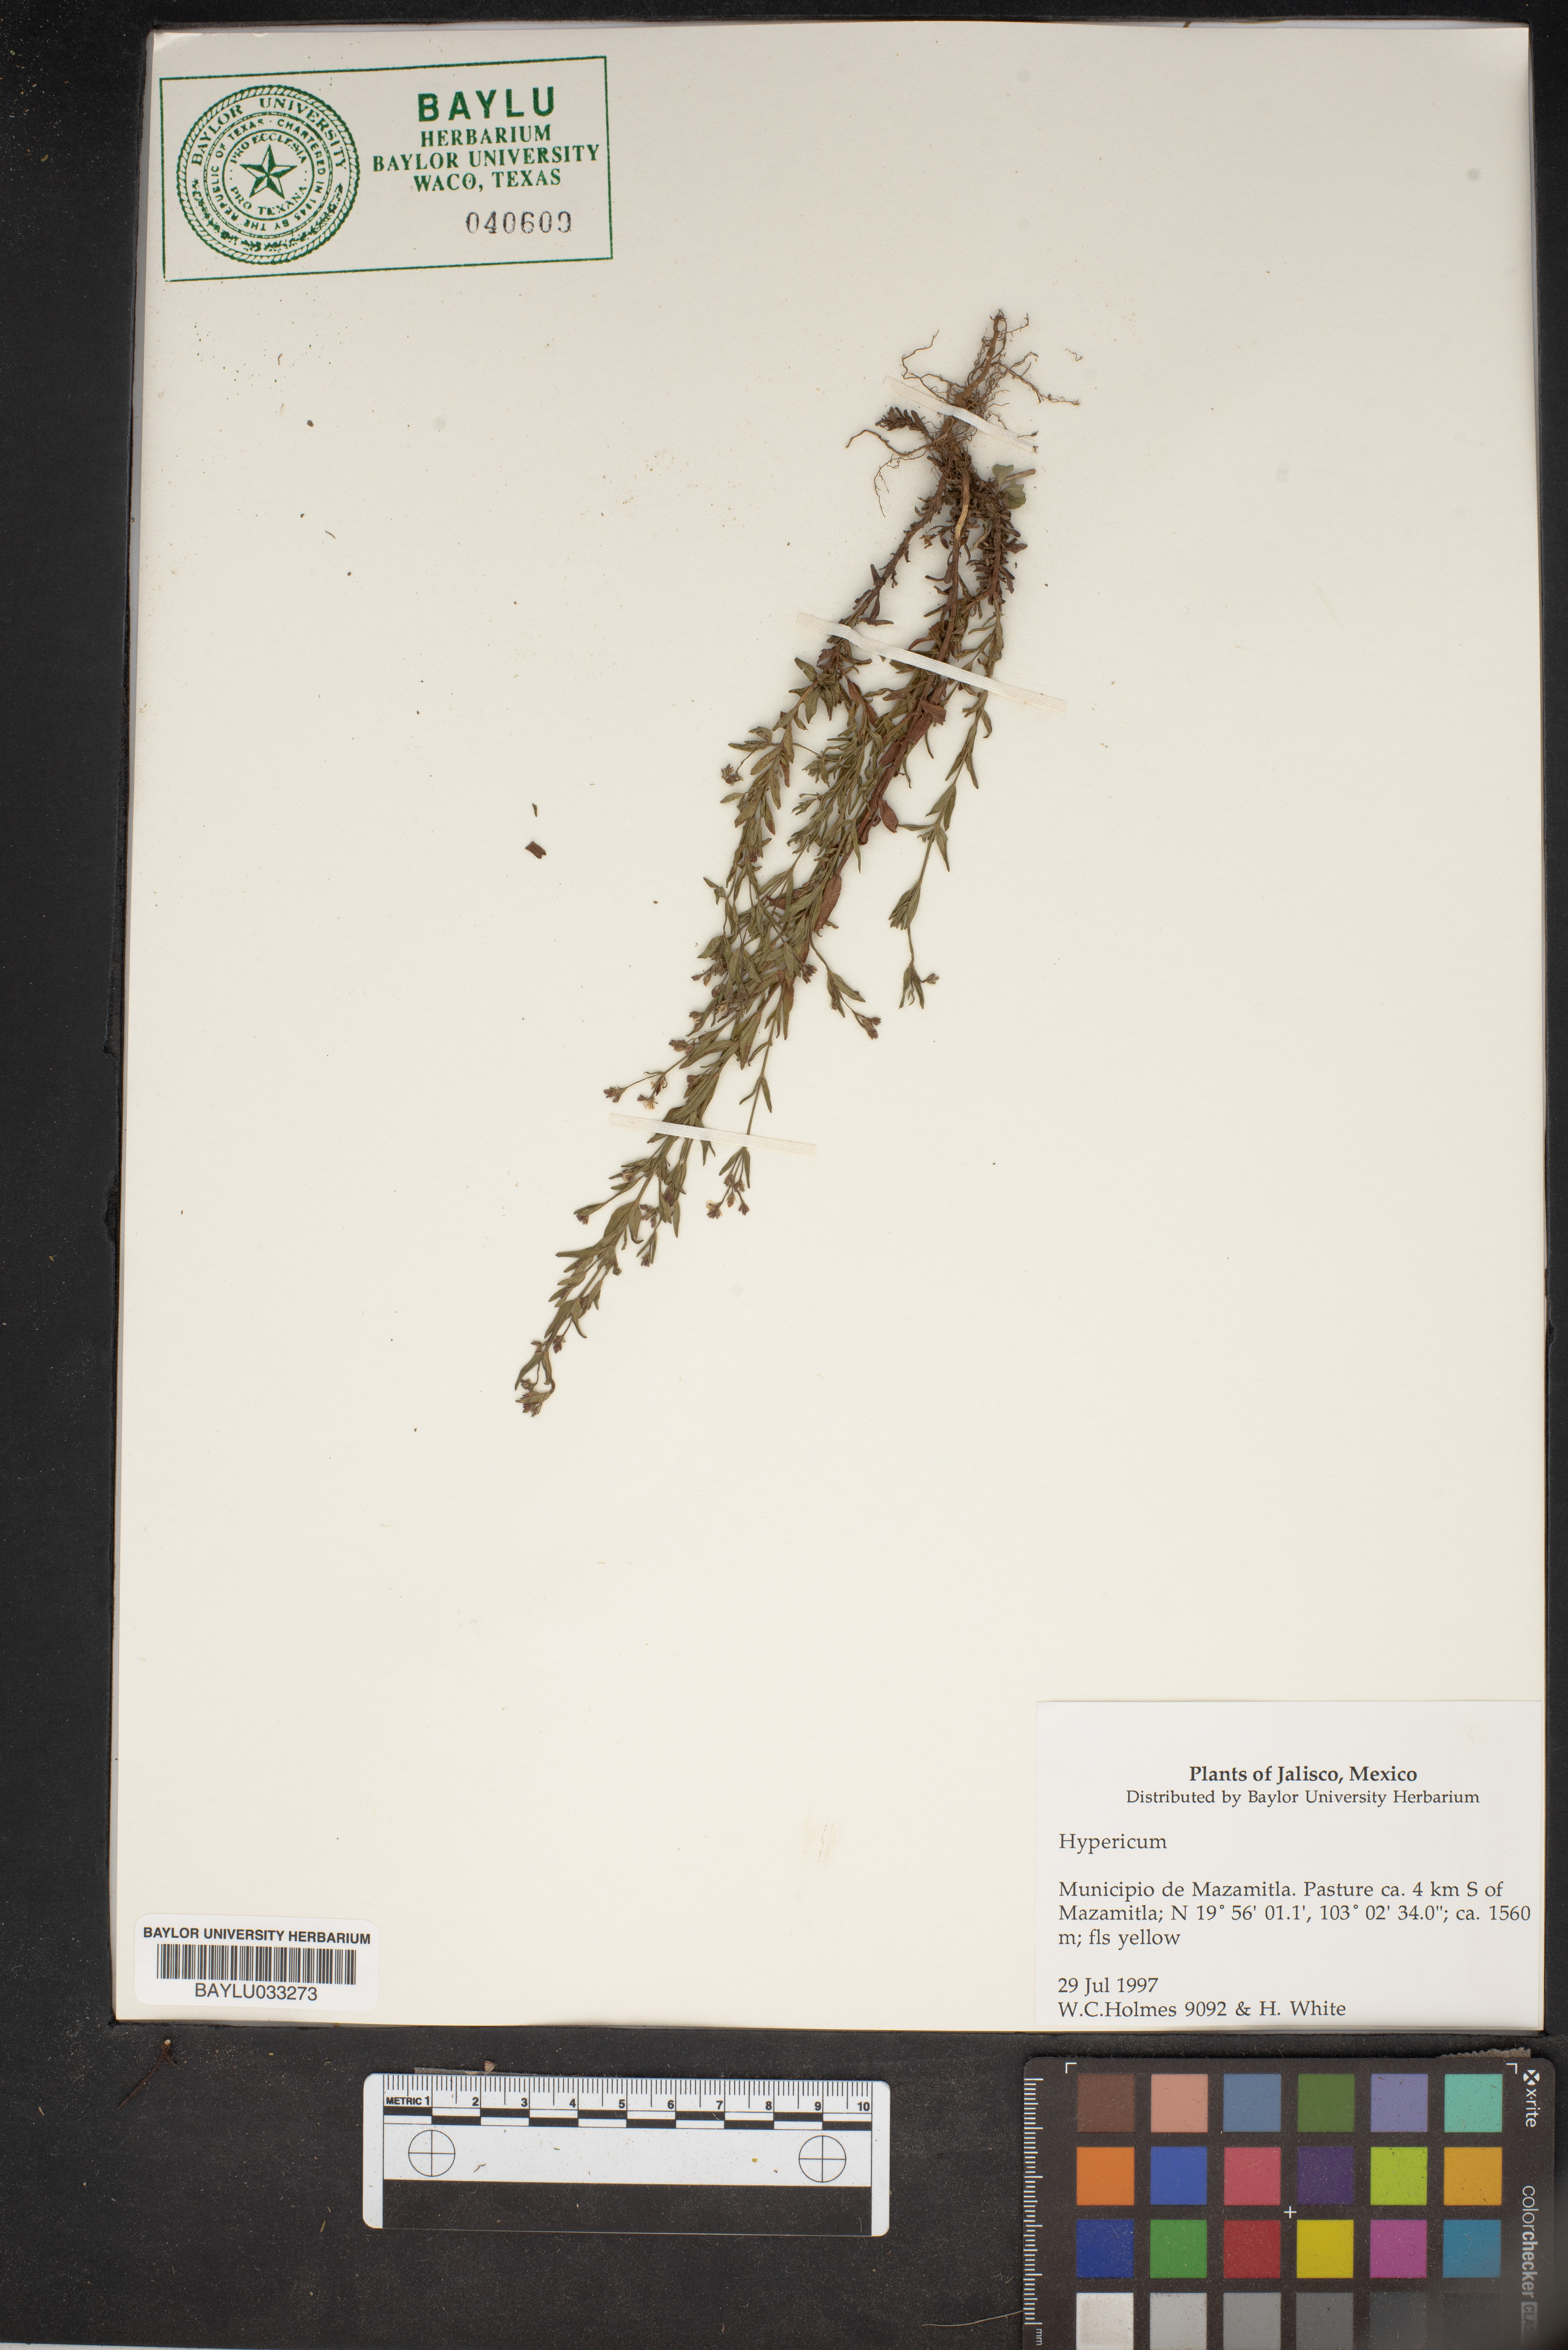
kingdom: Plantae
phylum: Tracheophyta
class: Magnoliopsida
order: Malpighiales
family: Hypericaceae
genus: Hypericum
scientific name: Hypericum
